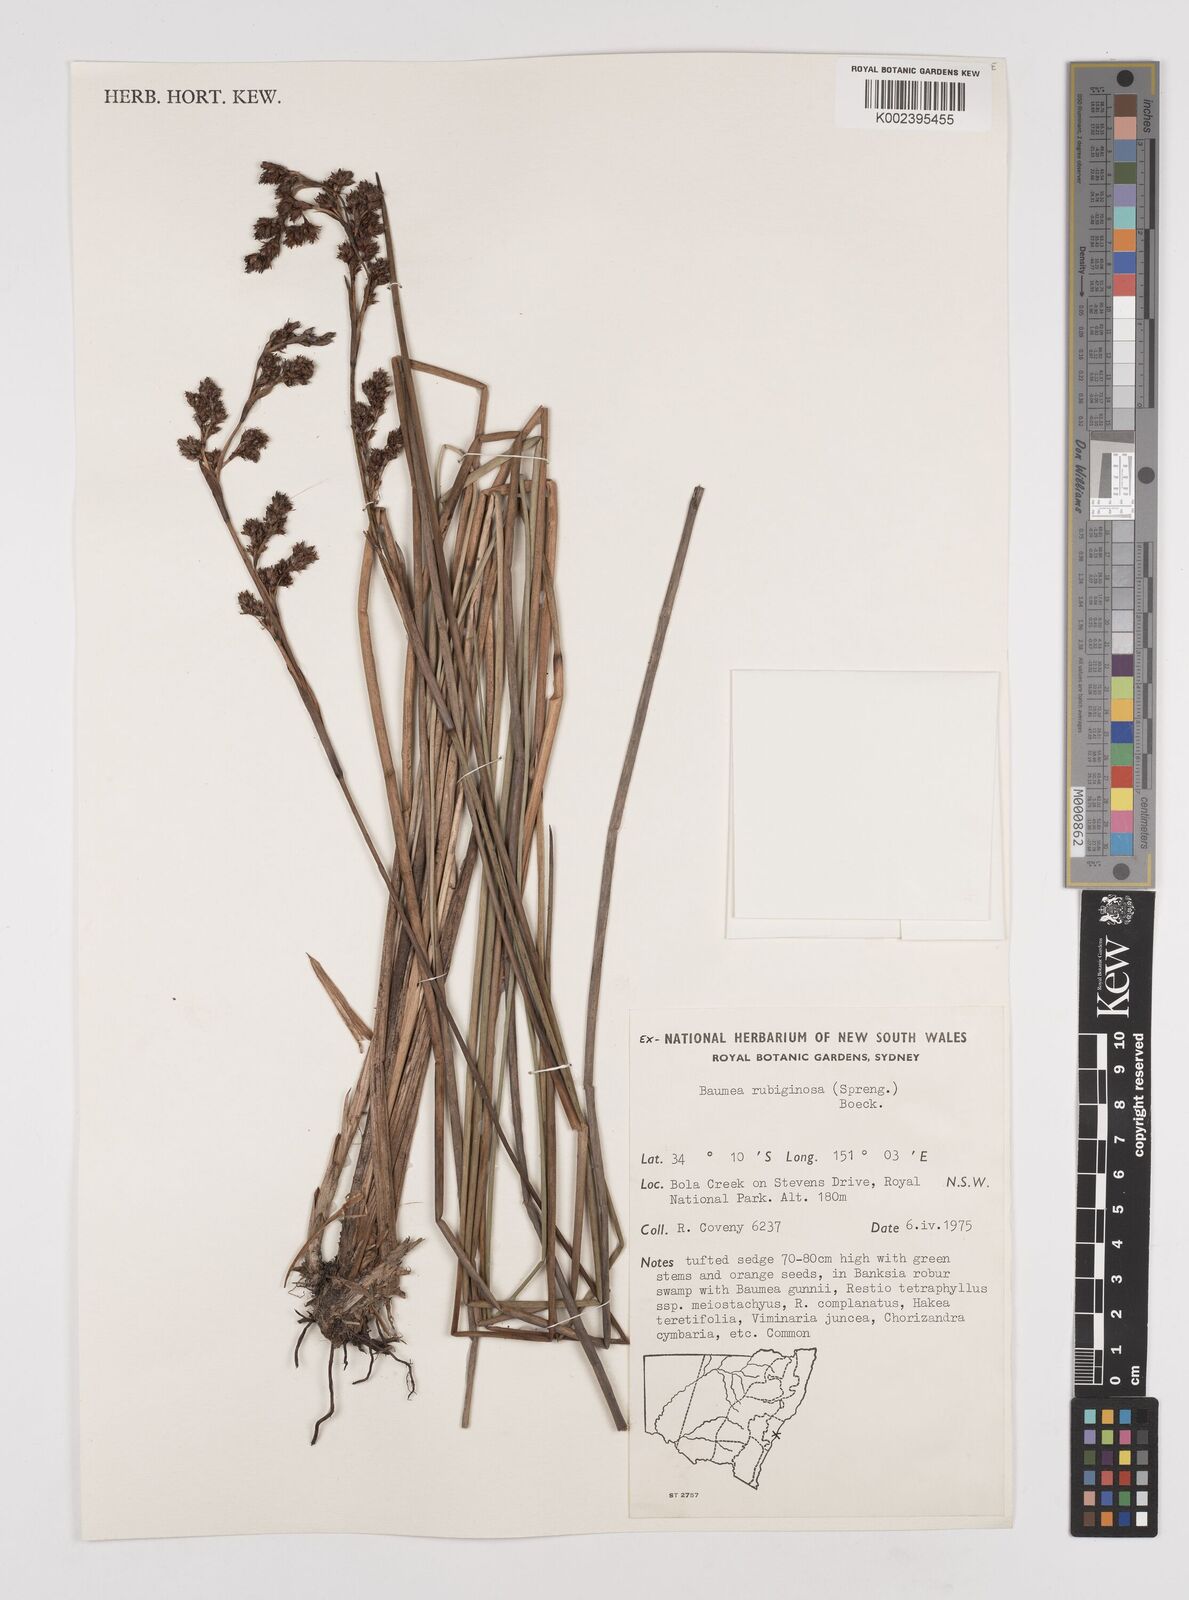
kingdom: Plantae
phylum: Tracheophyta
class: Liliopsida
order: Poales
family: Cyperaceae
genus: Machaerina
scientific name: Machaerina rubiginosa
